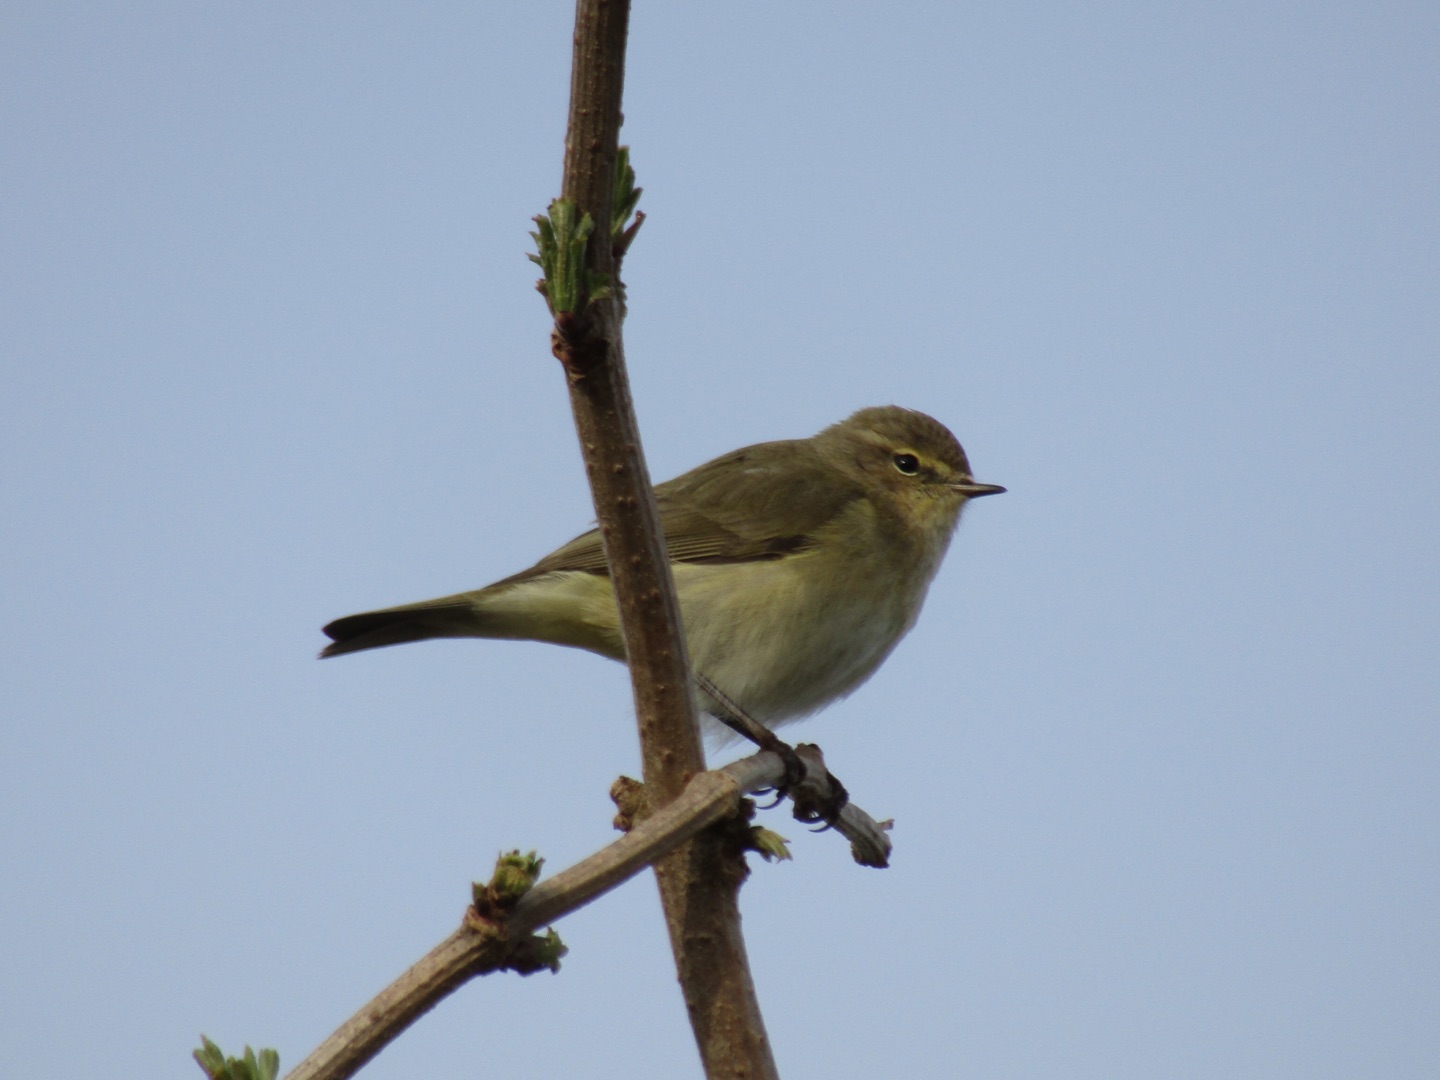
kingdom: Animalia
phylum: Chordata
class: Aves
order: Passeriformes
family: Phylloscopidae
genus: Phylloscopus
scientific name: Phylloscopus collybita
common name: Gransanger
